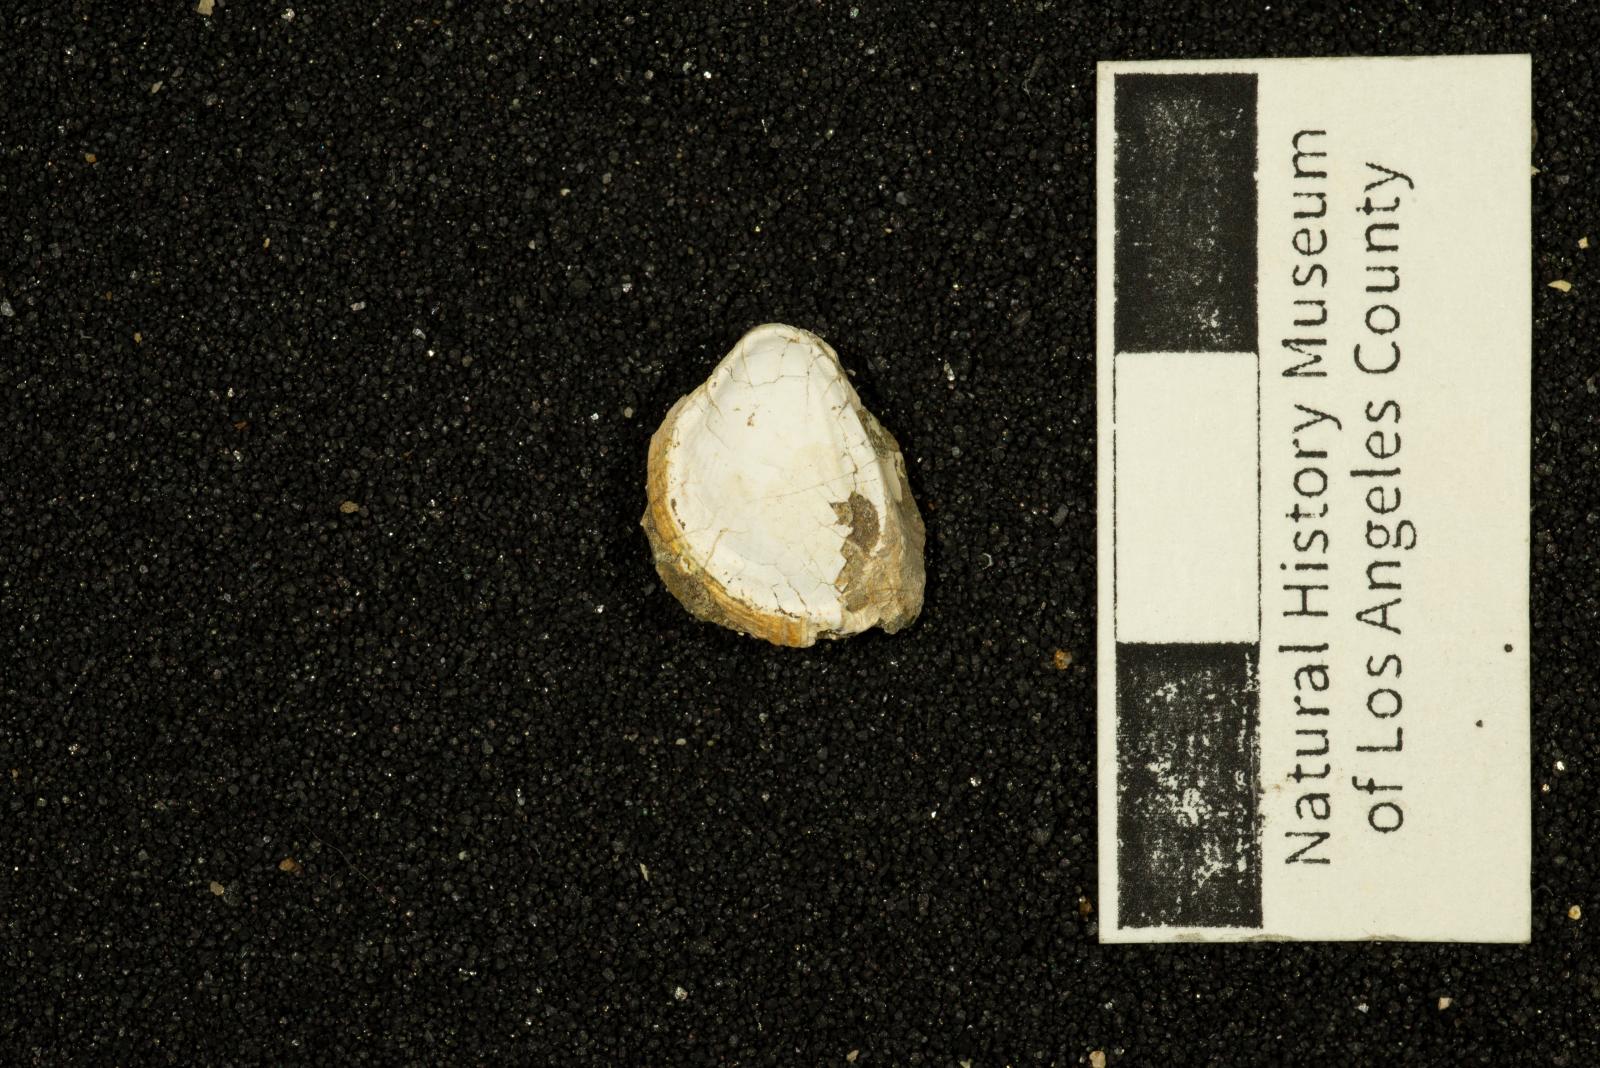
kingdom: Animalia
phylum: Mollusca
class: Bivalvia
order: Cardiida
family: Cardiidae
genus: Americardia
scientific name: Americardia
